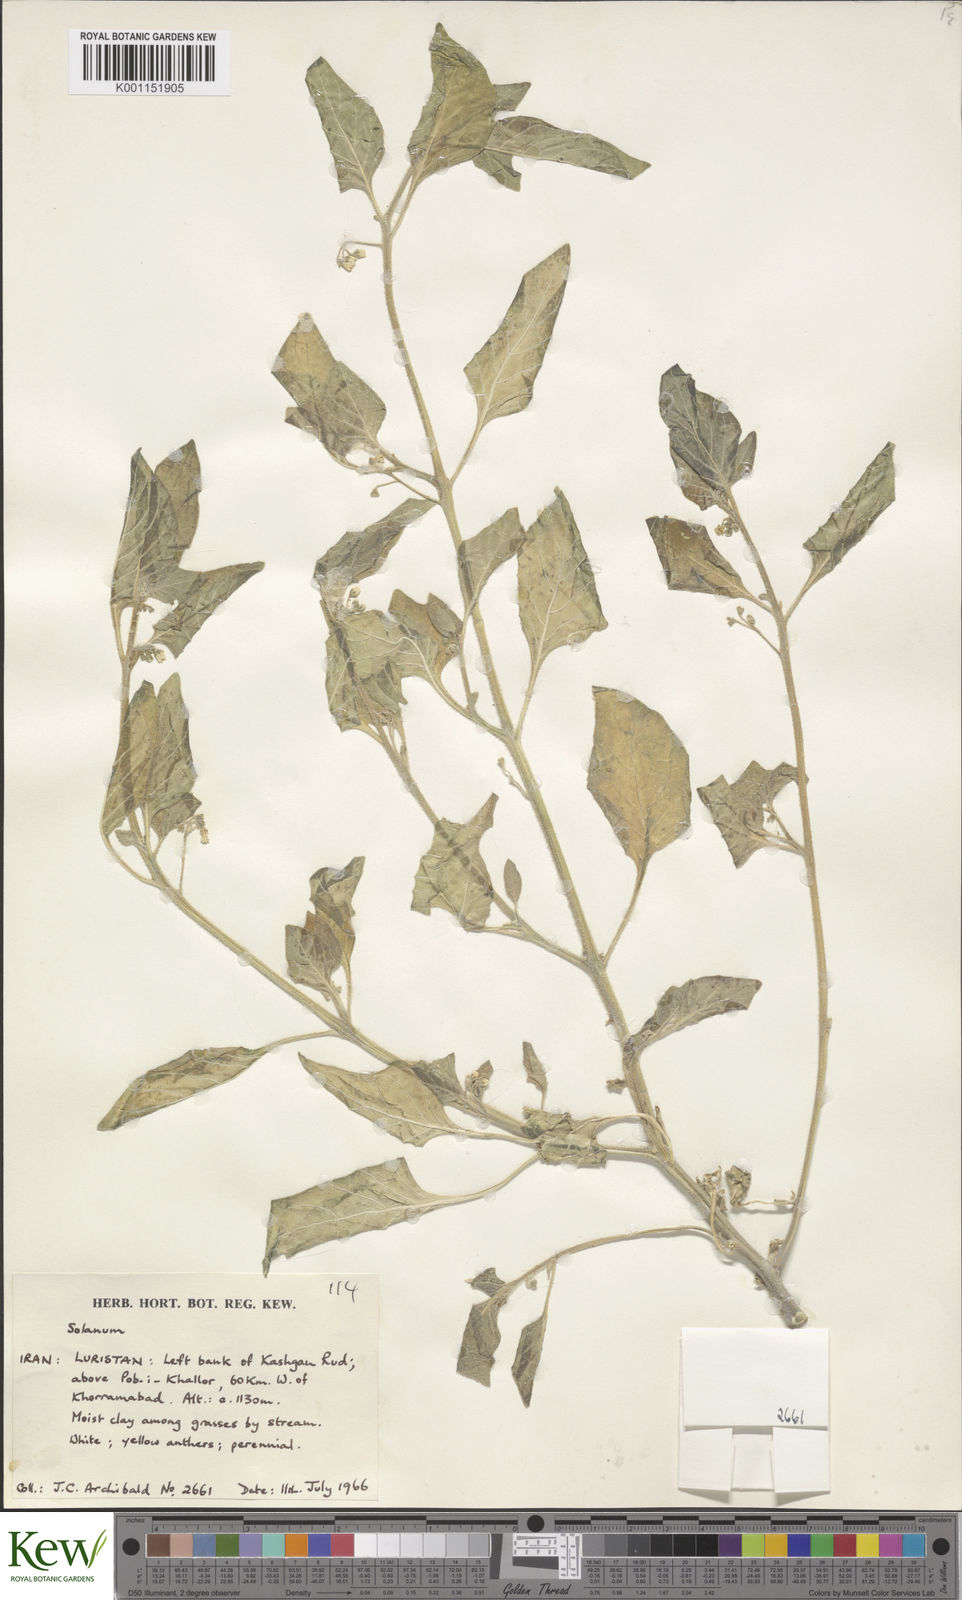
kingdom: Plantae
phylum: Tracheophyta
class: Magnoliopsida
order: Solanales
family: Solanaceae
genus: Solanum
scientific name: Solanum villosum
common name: Red nightshade
